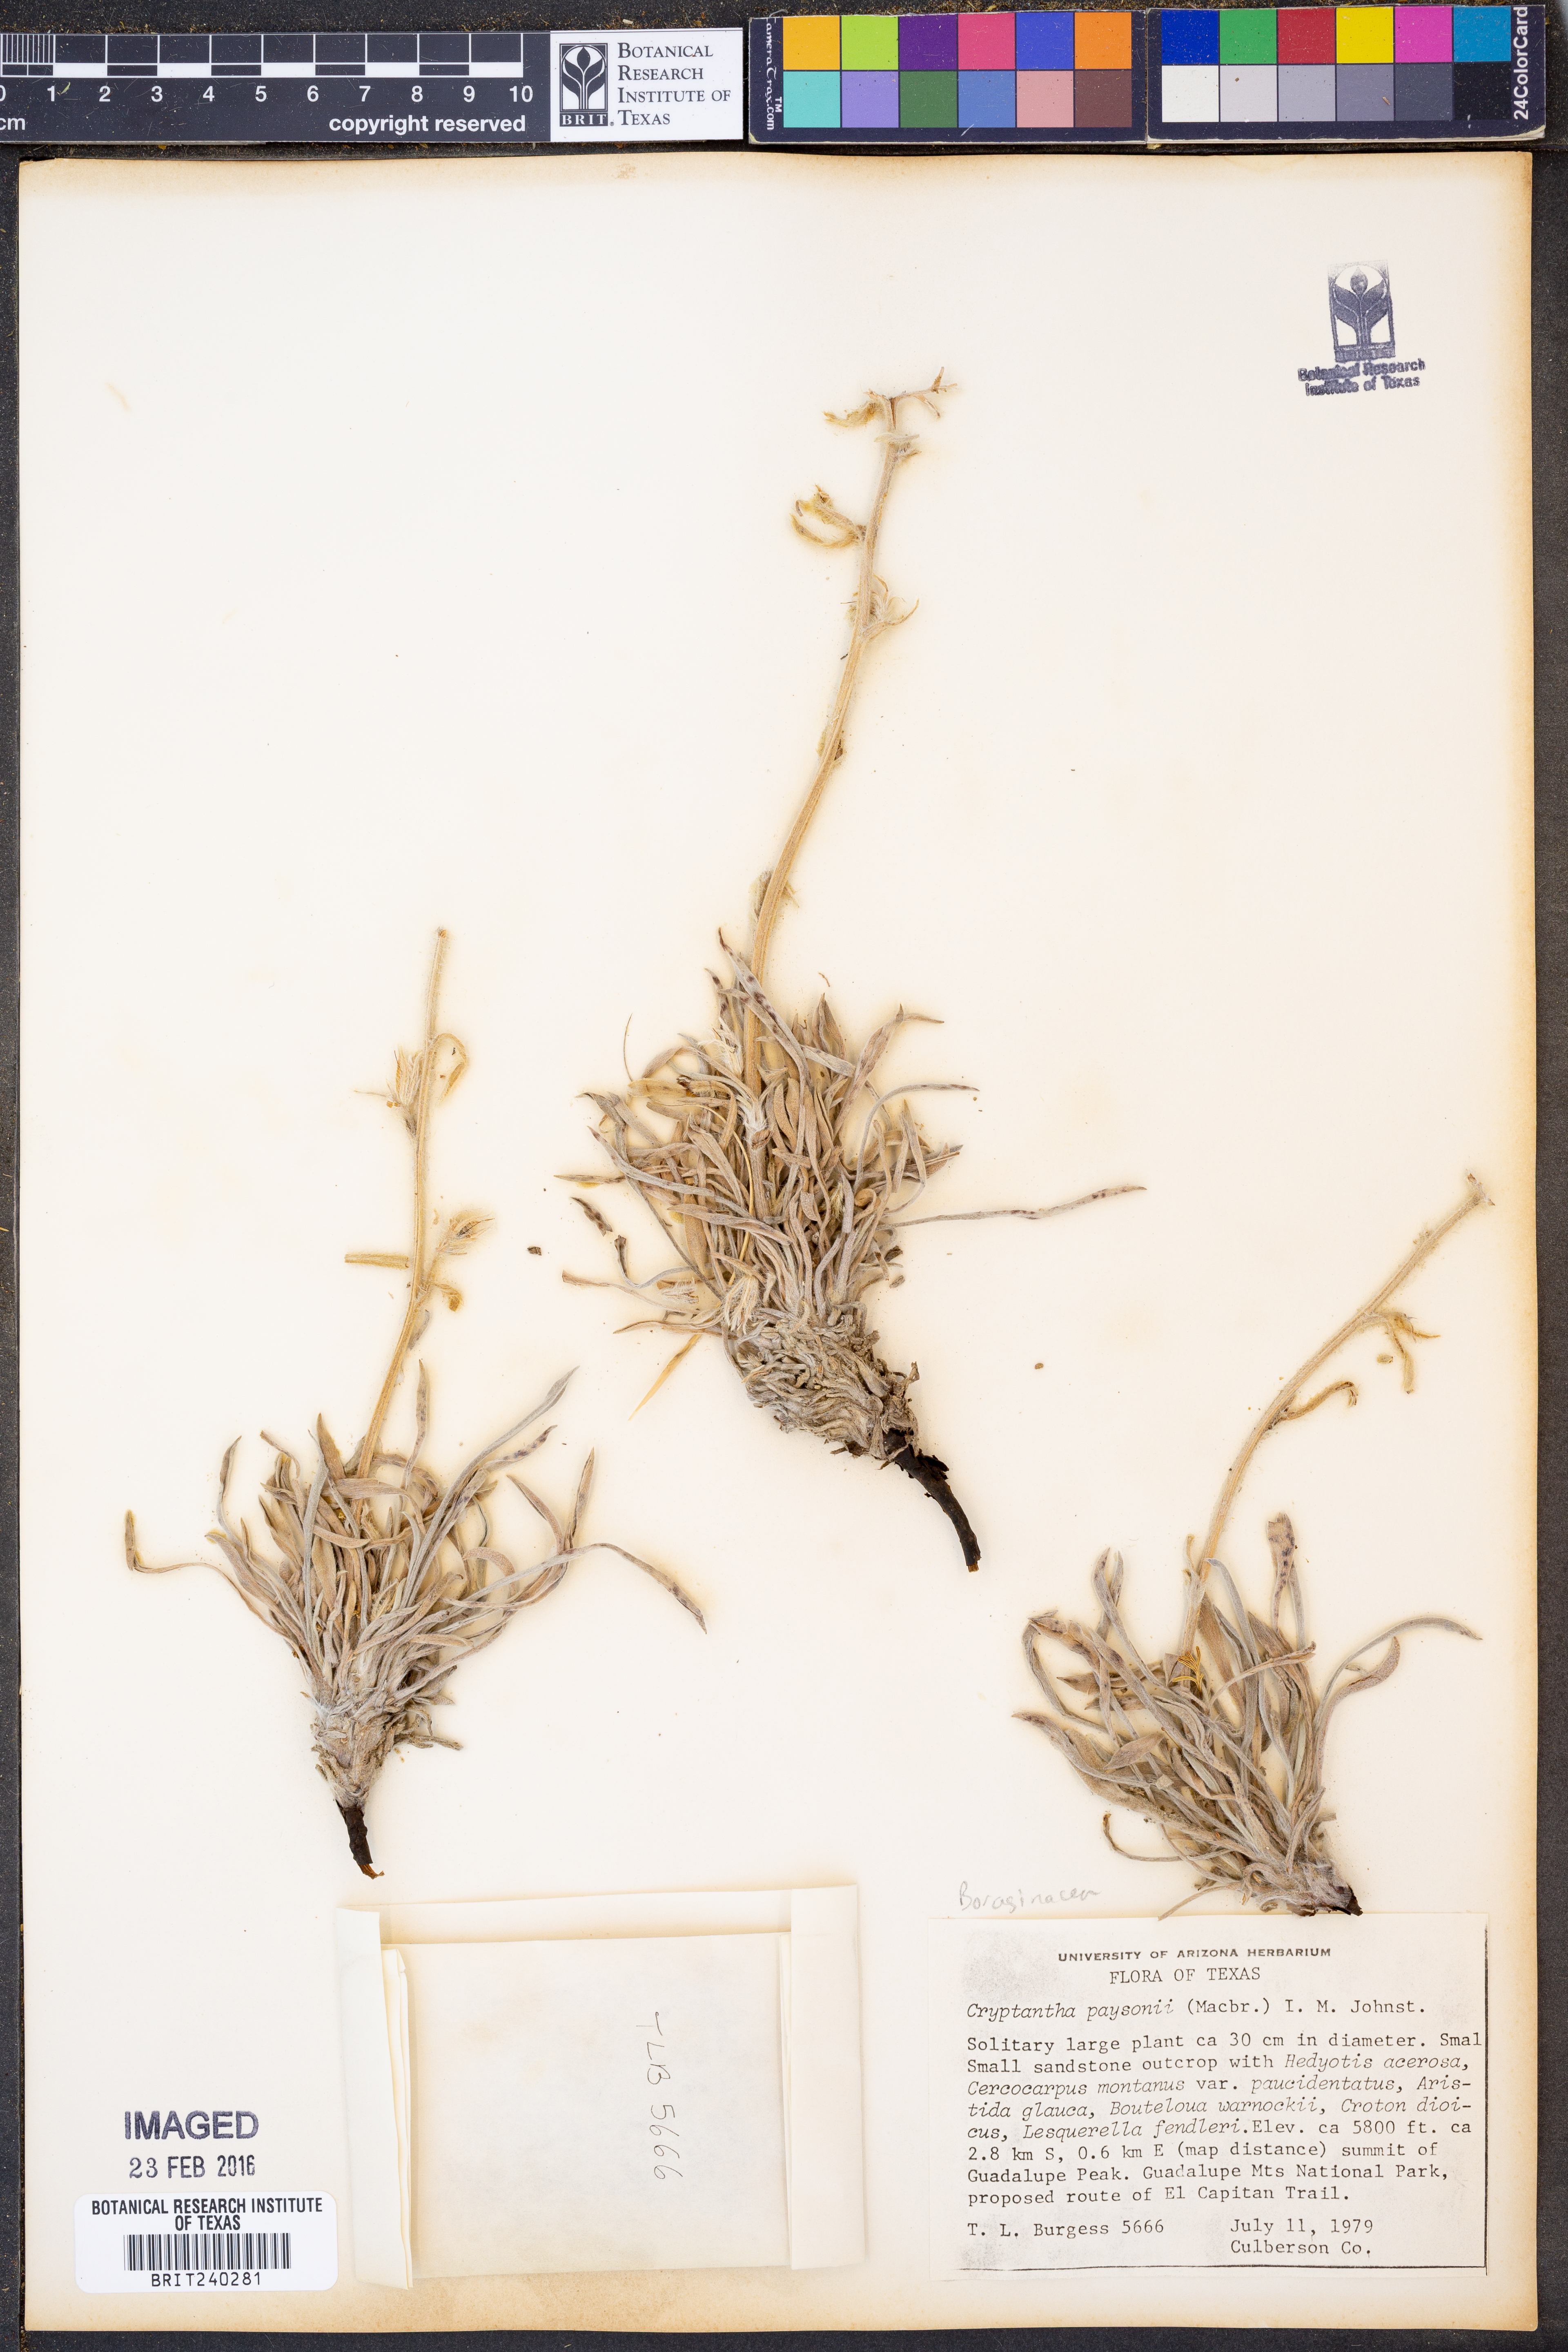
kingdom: Plantae
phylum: Tracheophyta
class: Magnoliopsida
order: Boraginales
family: Boraginaceae
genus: Oreocarya
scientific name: Oreocarya paysonii
